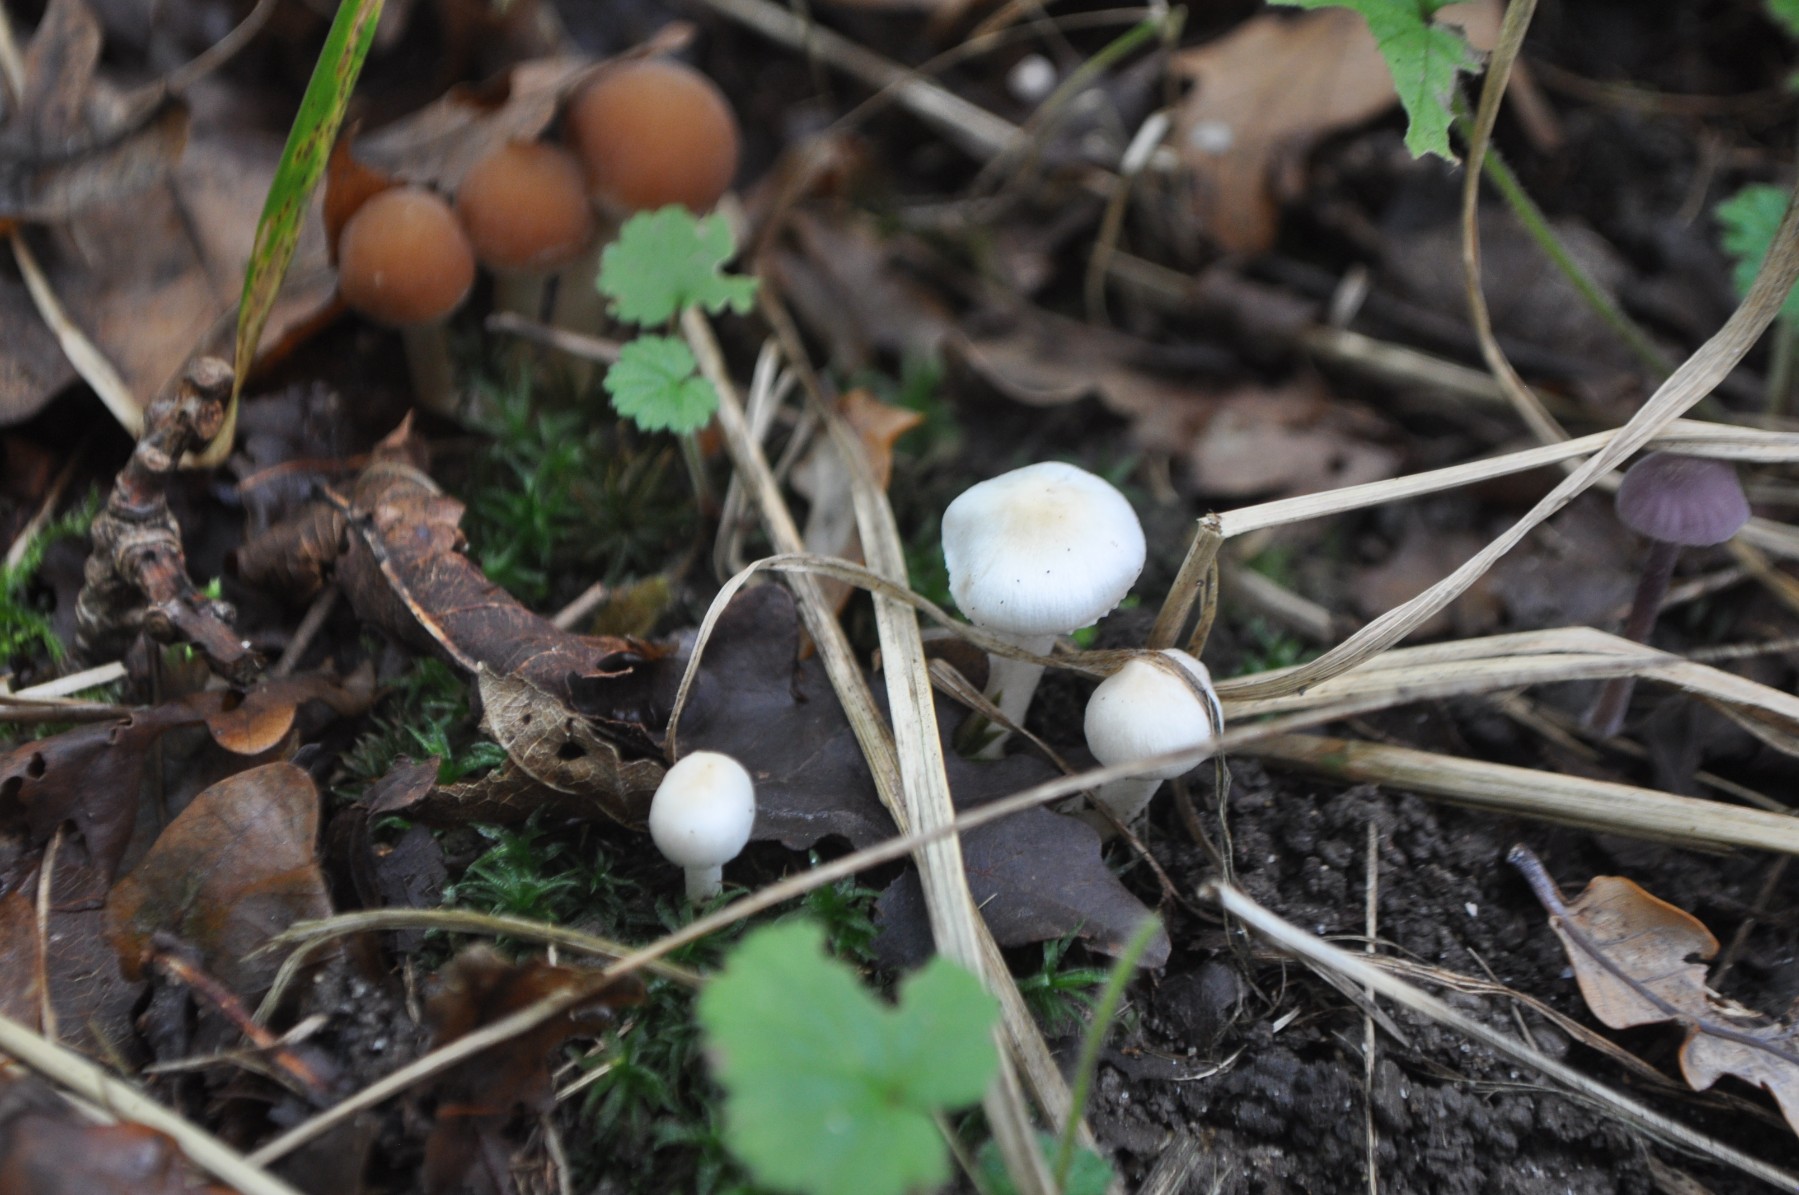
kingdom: Fungi
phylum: Basidiomycota
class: Agaricomycetes
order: Agaricales
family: Inocybaceae
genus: Inocybe
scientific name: Inocybe
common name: almindelig trævlhat
